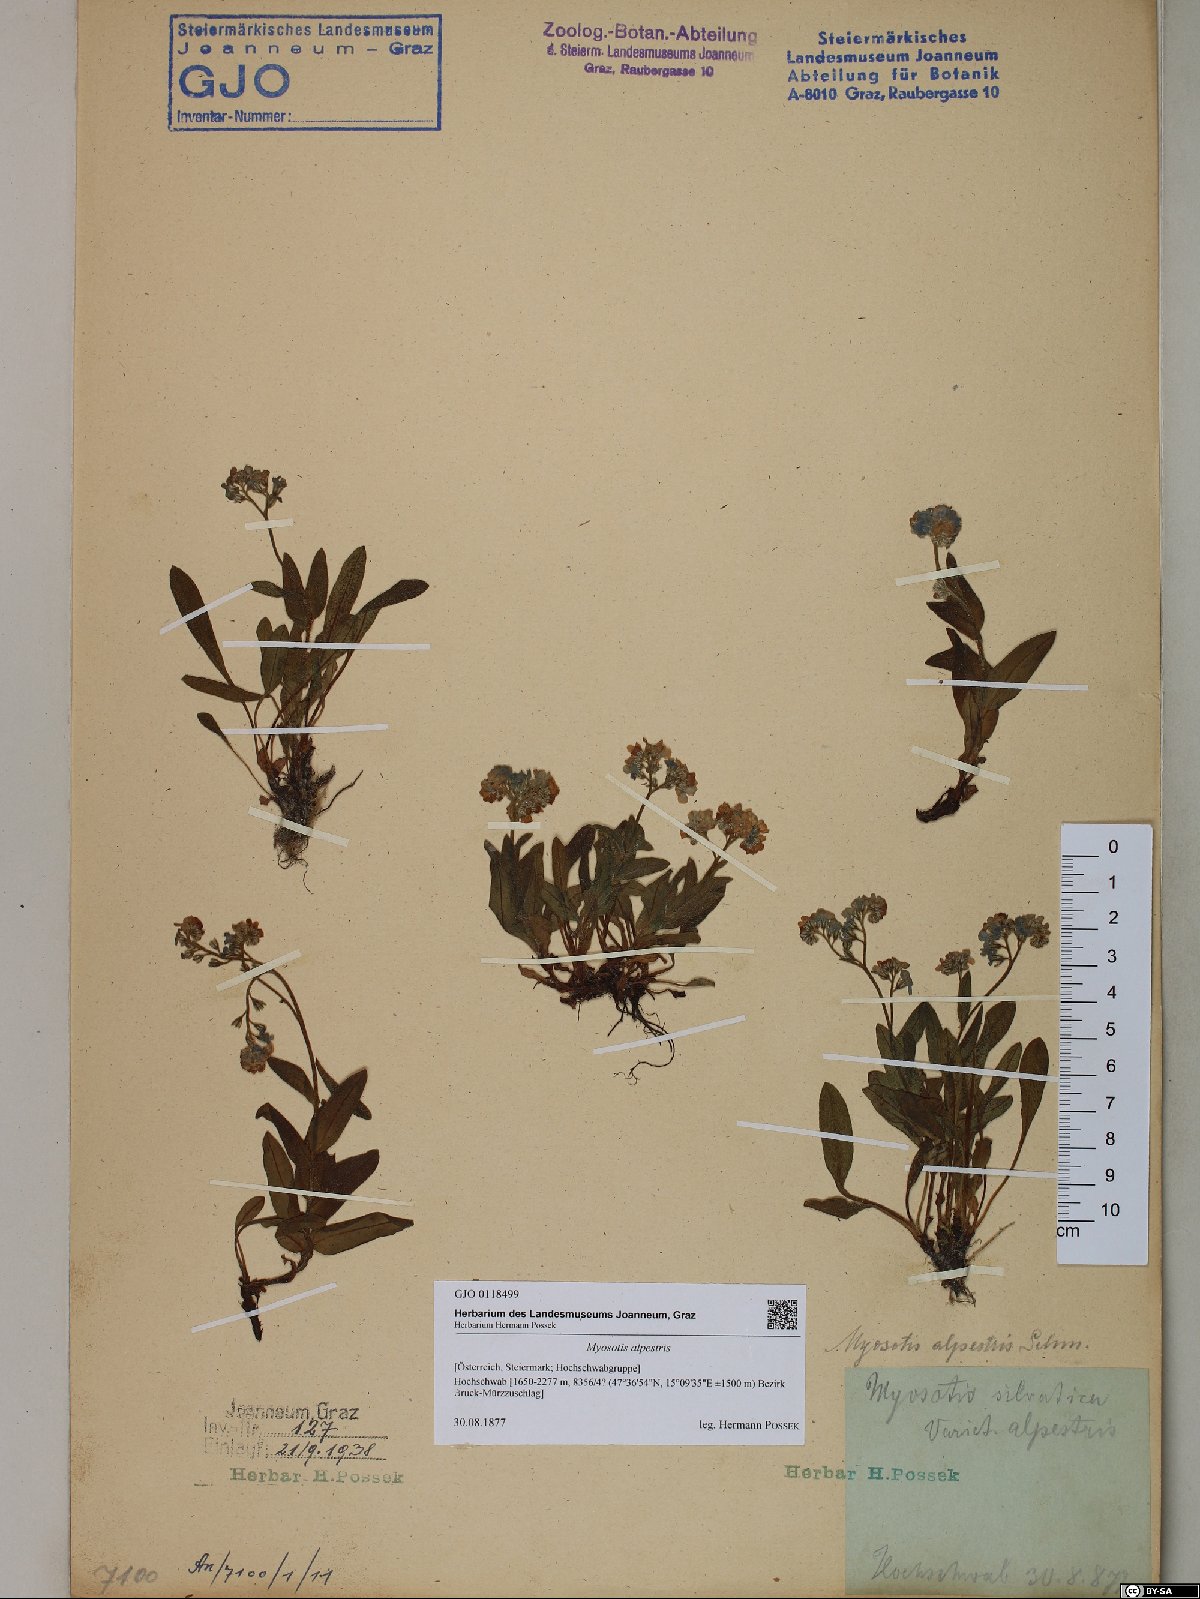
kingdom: Plantae
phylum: Tracheophyta
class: Magnoliopsida
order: Boraginales
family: Boraginaceae
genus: Myosotis
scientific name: Myosotis alpestris
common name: Alpine forget-me-not
